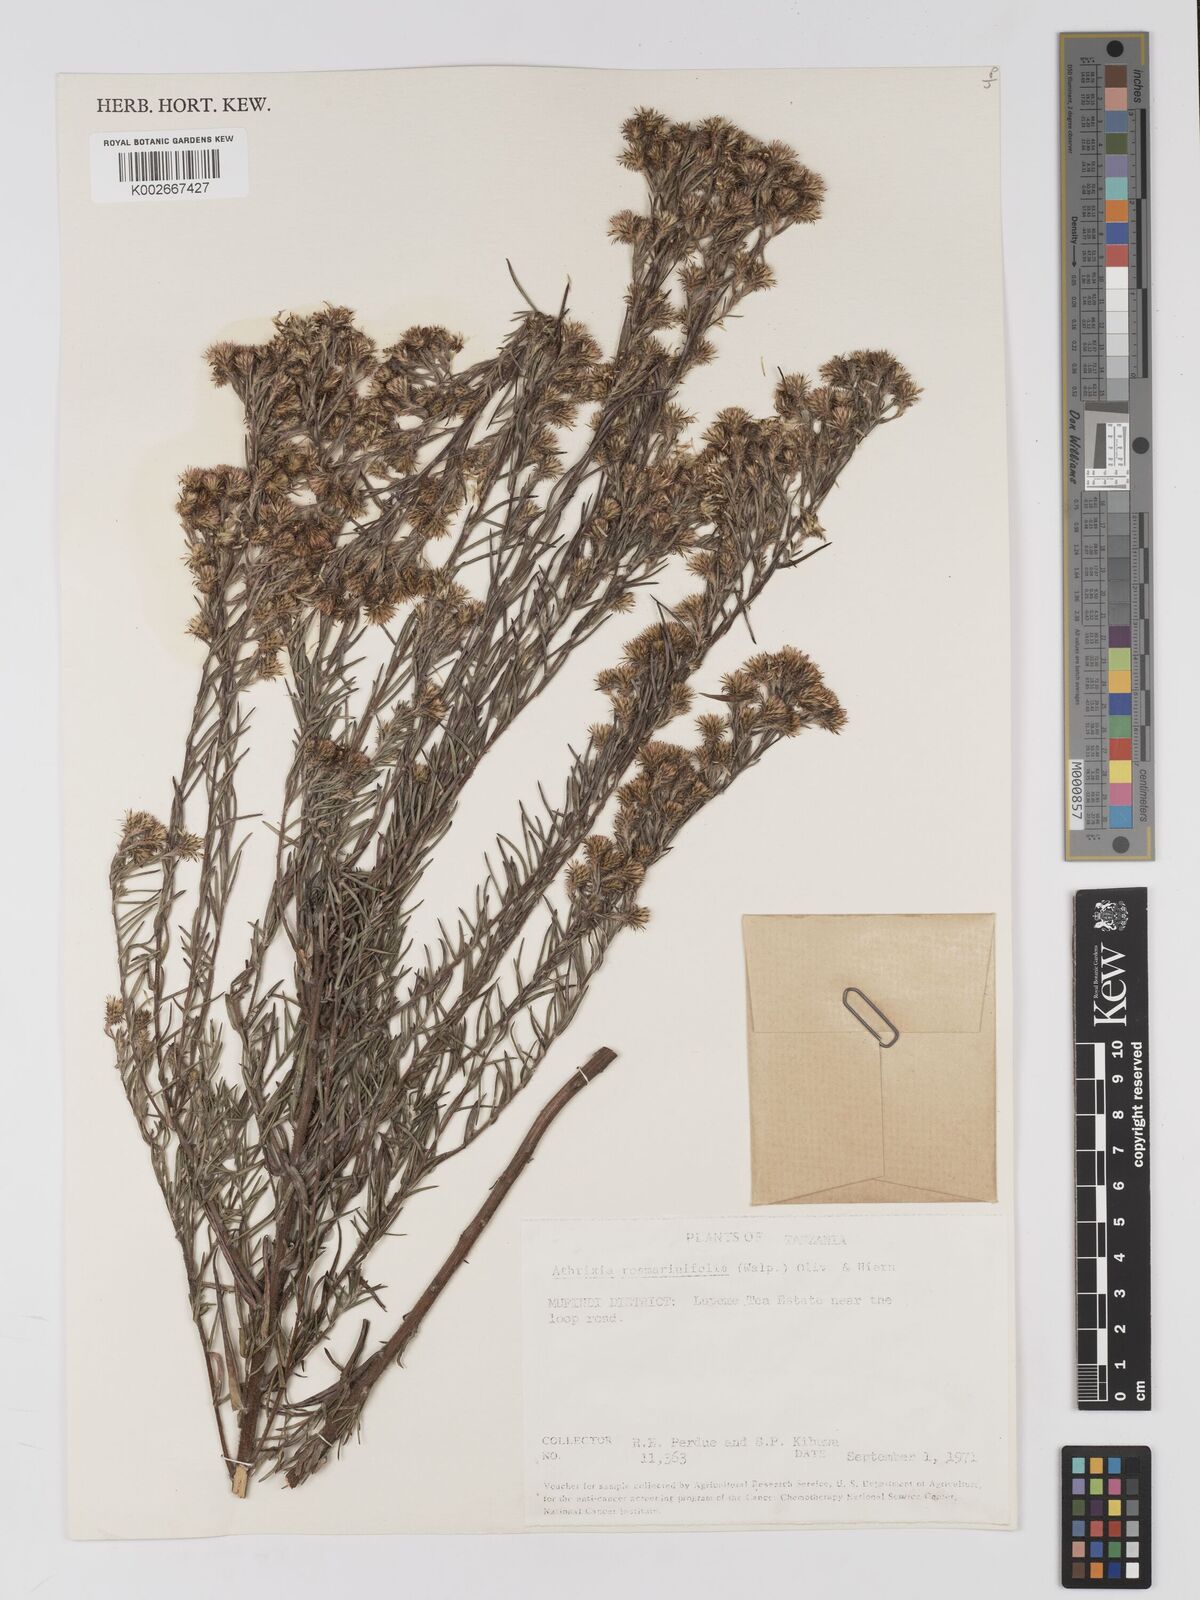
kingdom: Plantae
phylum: Tracheophyta
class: Magnoliopsida
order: Asterales
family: Asteraceae
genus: Athrixia
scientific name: Athrixia rosmarinifolia
